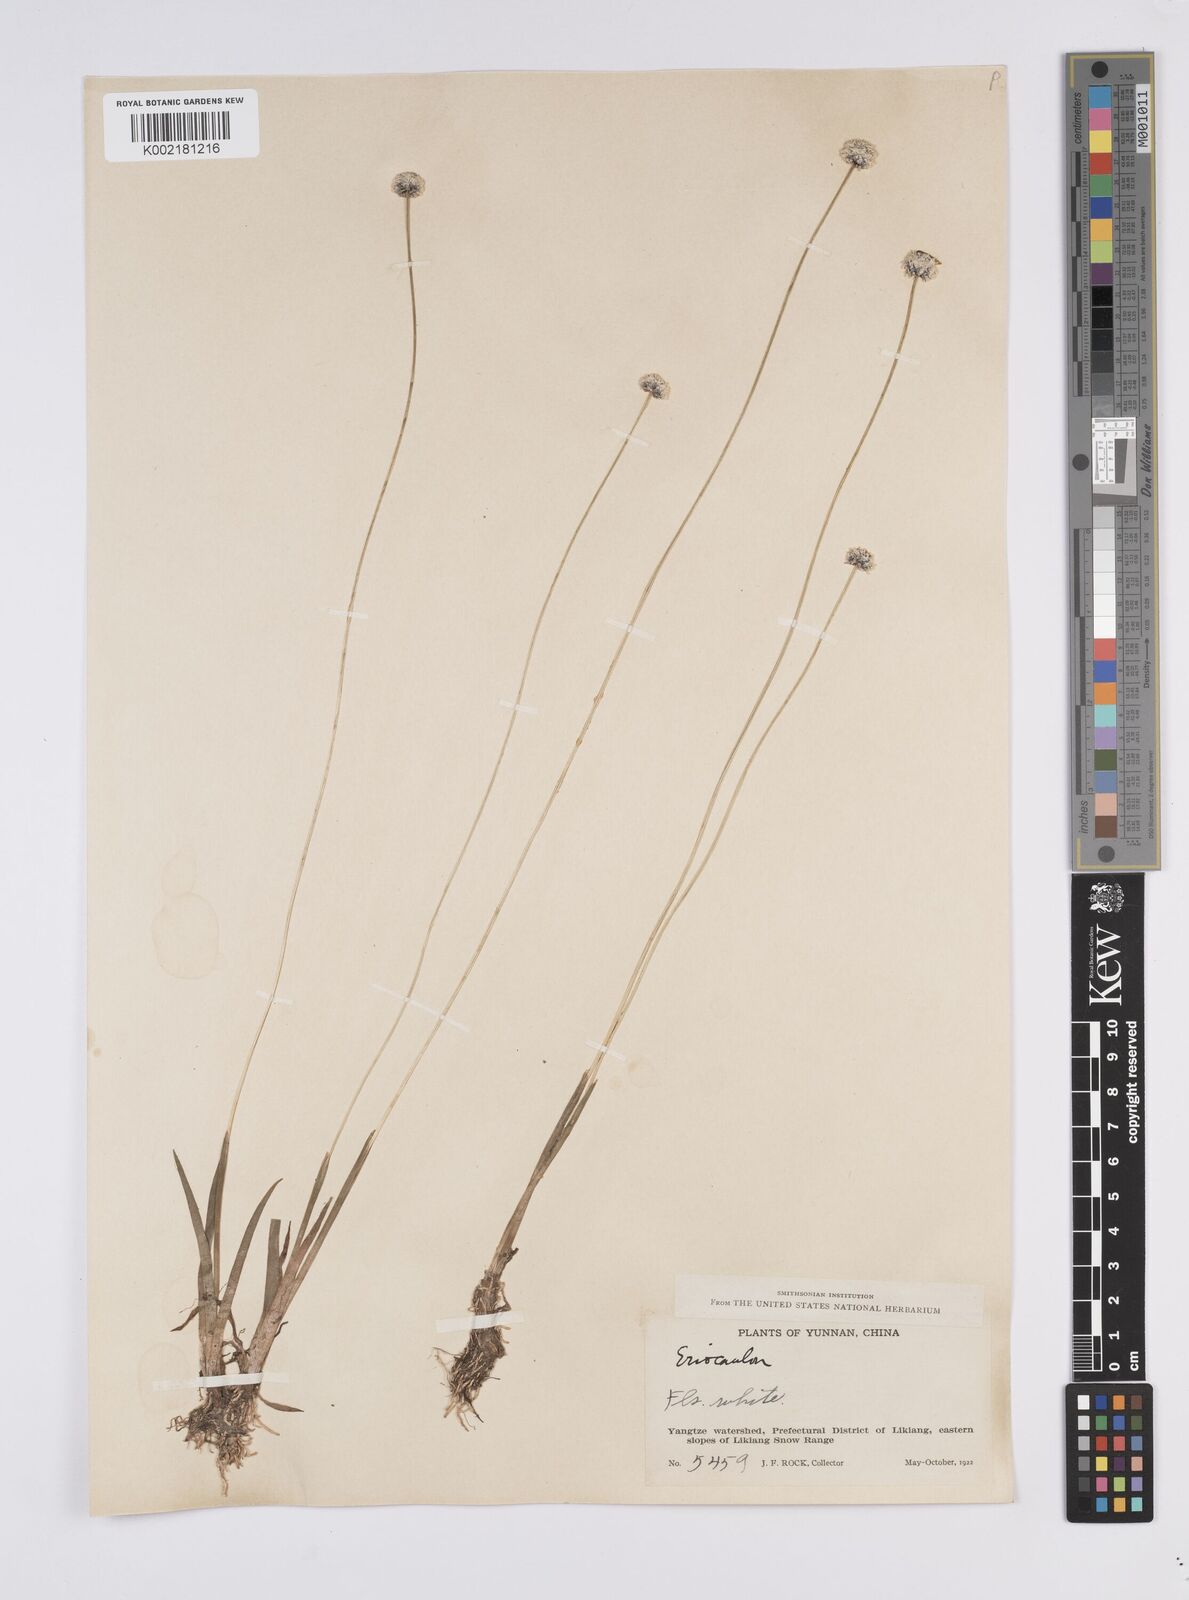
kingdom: Plantae
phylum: Tracheophyta
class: Liliopsida
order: Poales
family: Eriocaulaceae
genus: Eriocaulon
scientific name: Eriocaulon
